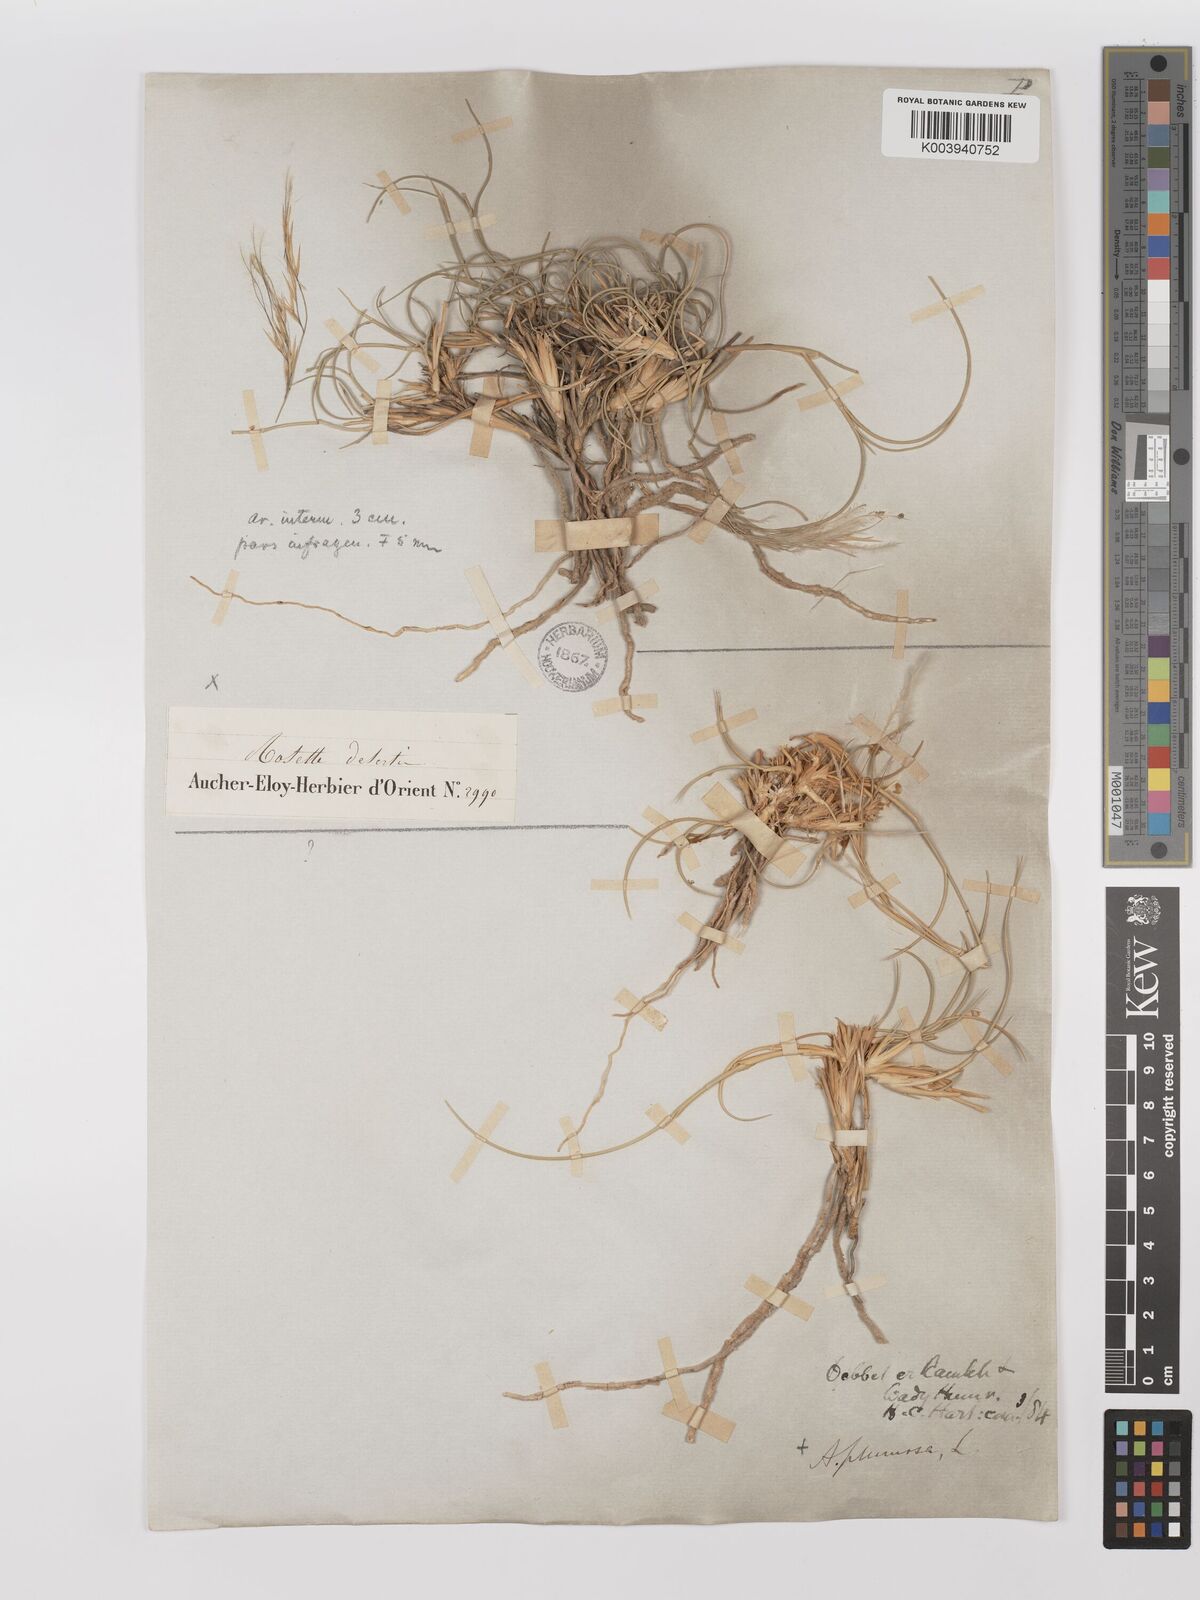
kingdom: Plantae
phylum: Tracheophyta
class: Liliopsida
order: Poales
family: Poaceae
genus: Stipagrostis
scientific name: Stipagrostis plumosa
